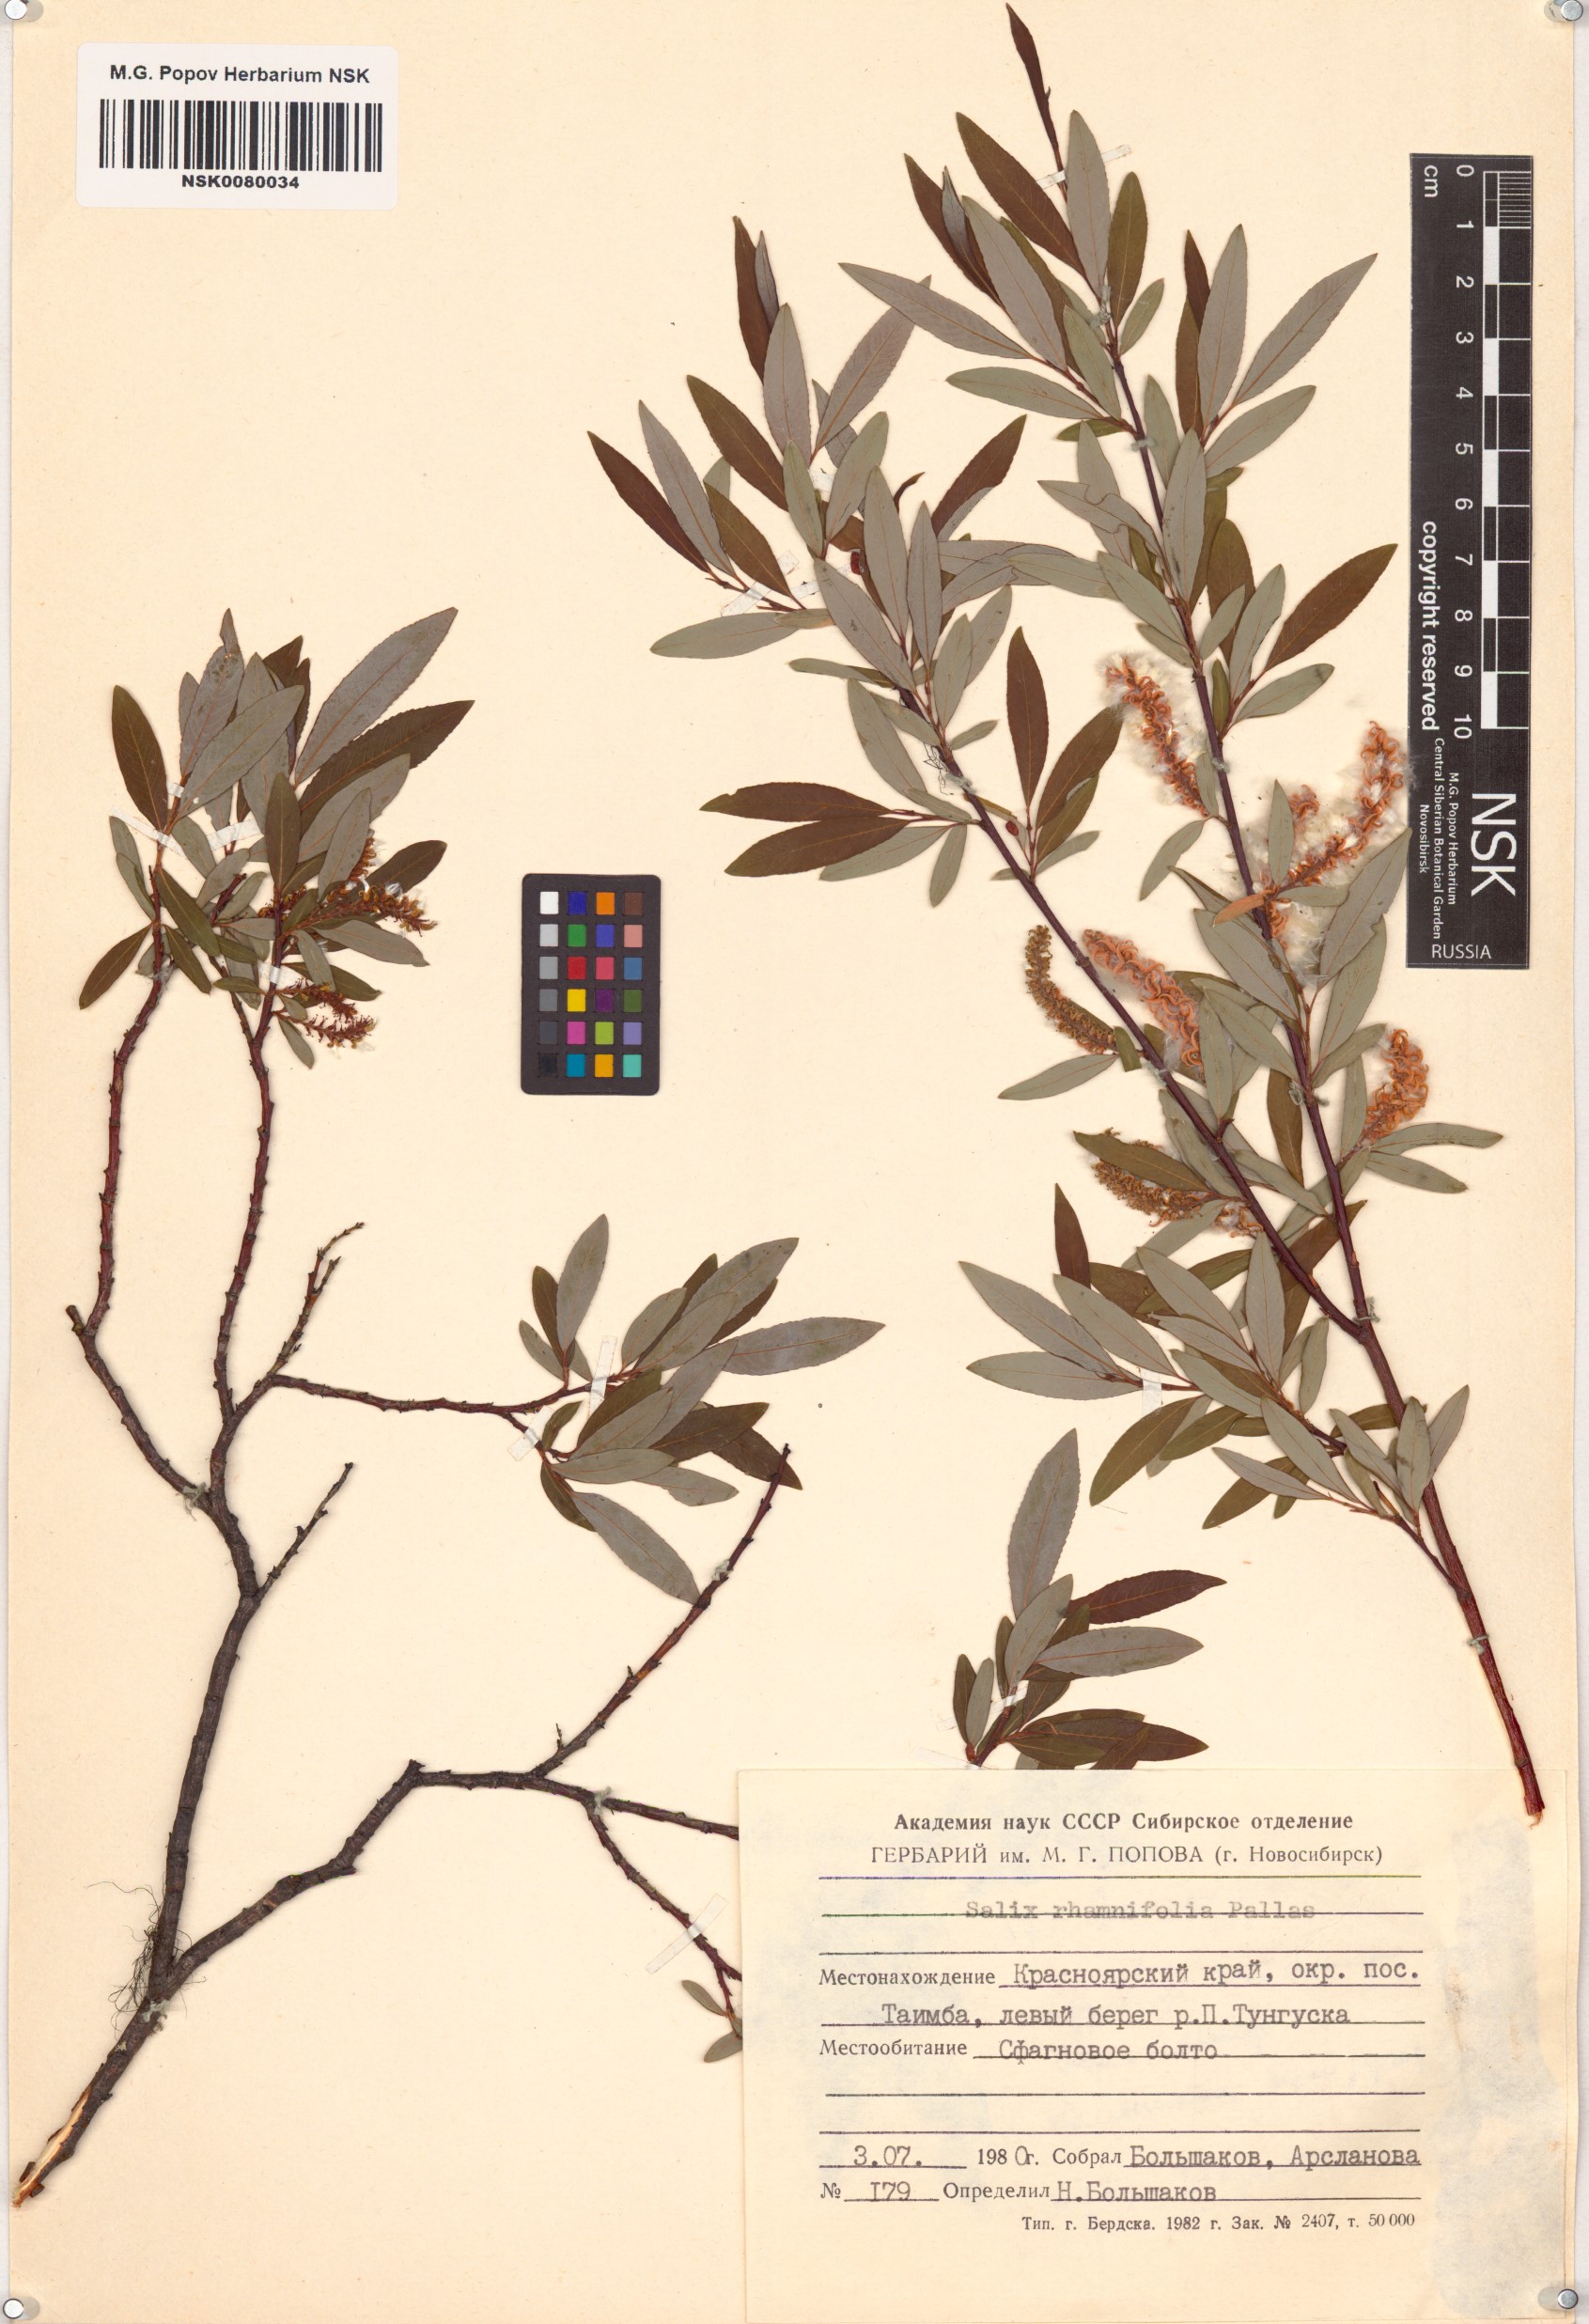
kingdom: Plantae
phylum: Tracheophyta
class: Magnoliopsida
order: Malpighiales
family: Salicaceae
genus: Salix
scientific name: Salix rhamnifolia
